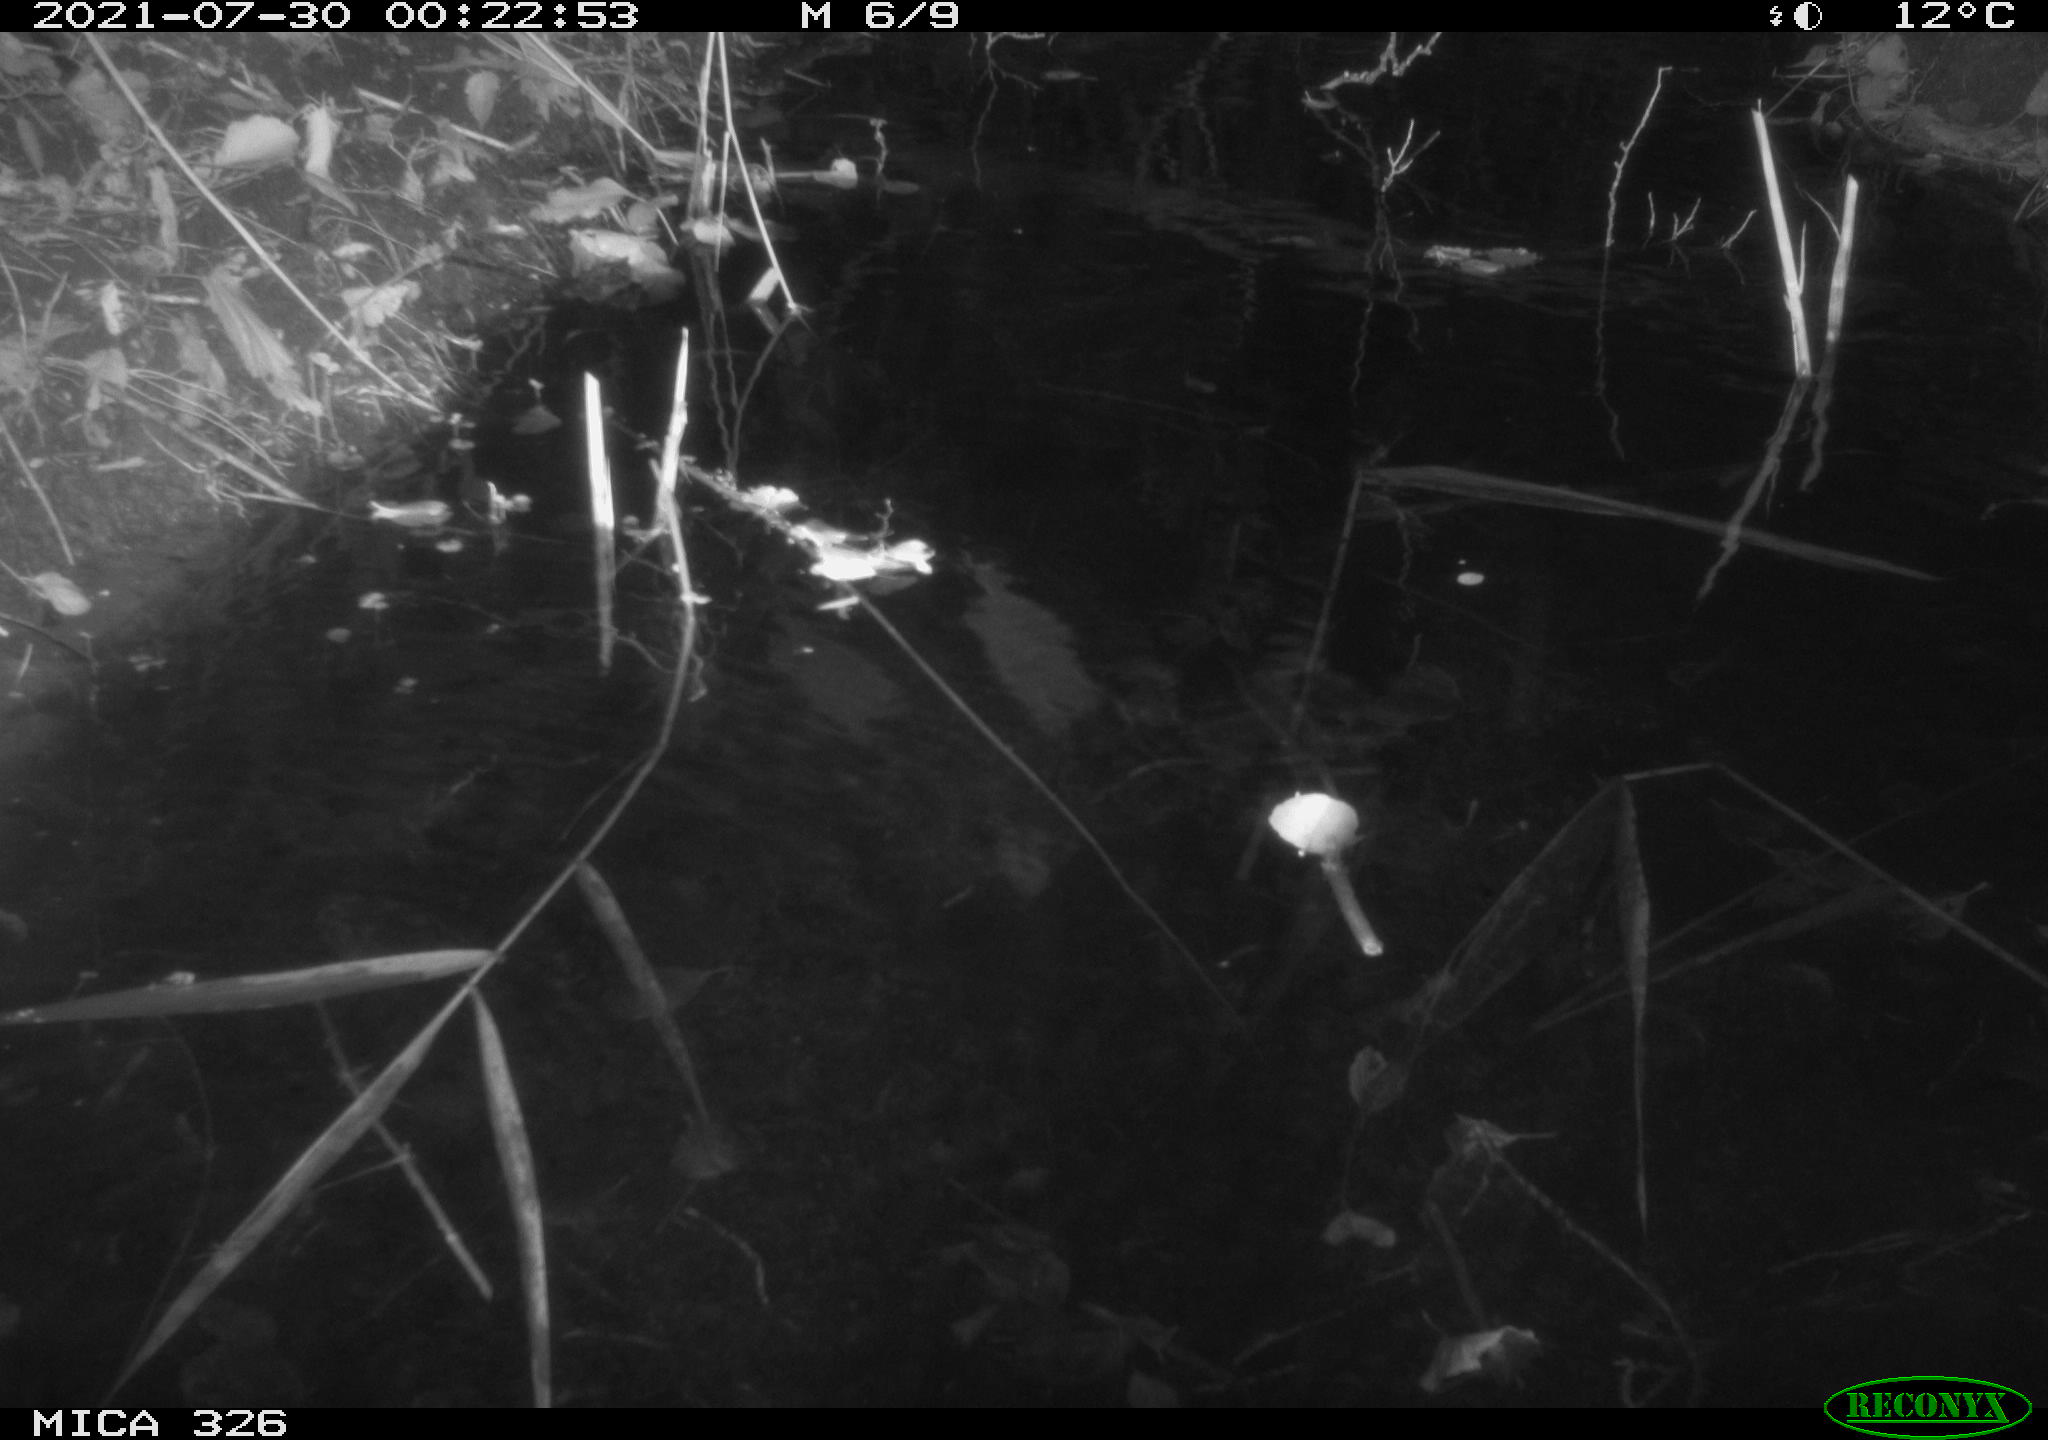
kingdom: Animalia
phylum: Chordata
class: Mammalia
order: Rodentia
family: Muridae
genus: Rattus
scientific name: Rattus norvegicus
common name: Brown rat
